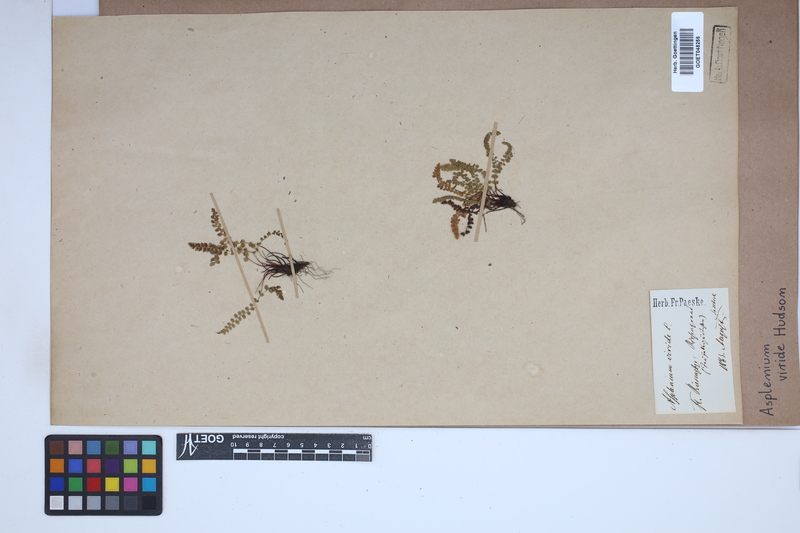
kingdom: Plantae
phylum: Tracheophyta
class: Polypodiopsida
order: Polypodiales
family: Aspleniaceae
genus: Asplenium
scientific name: Asplenium viride
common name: Green spleenwort
